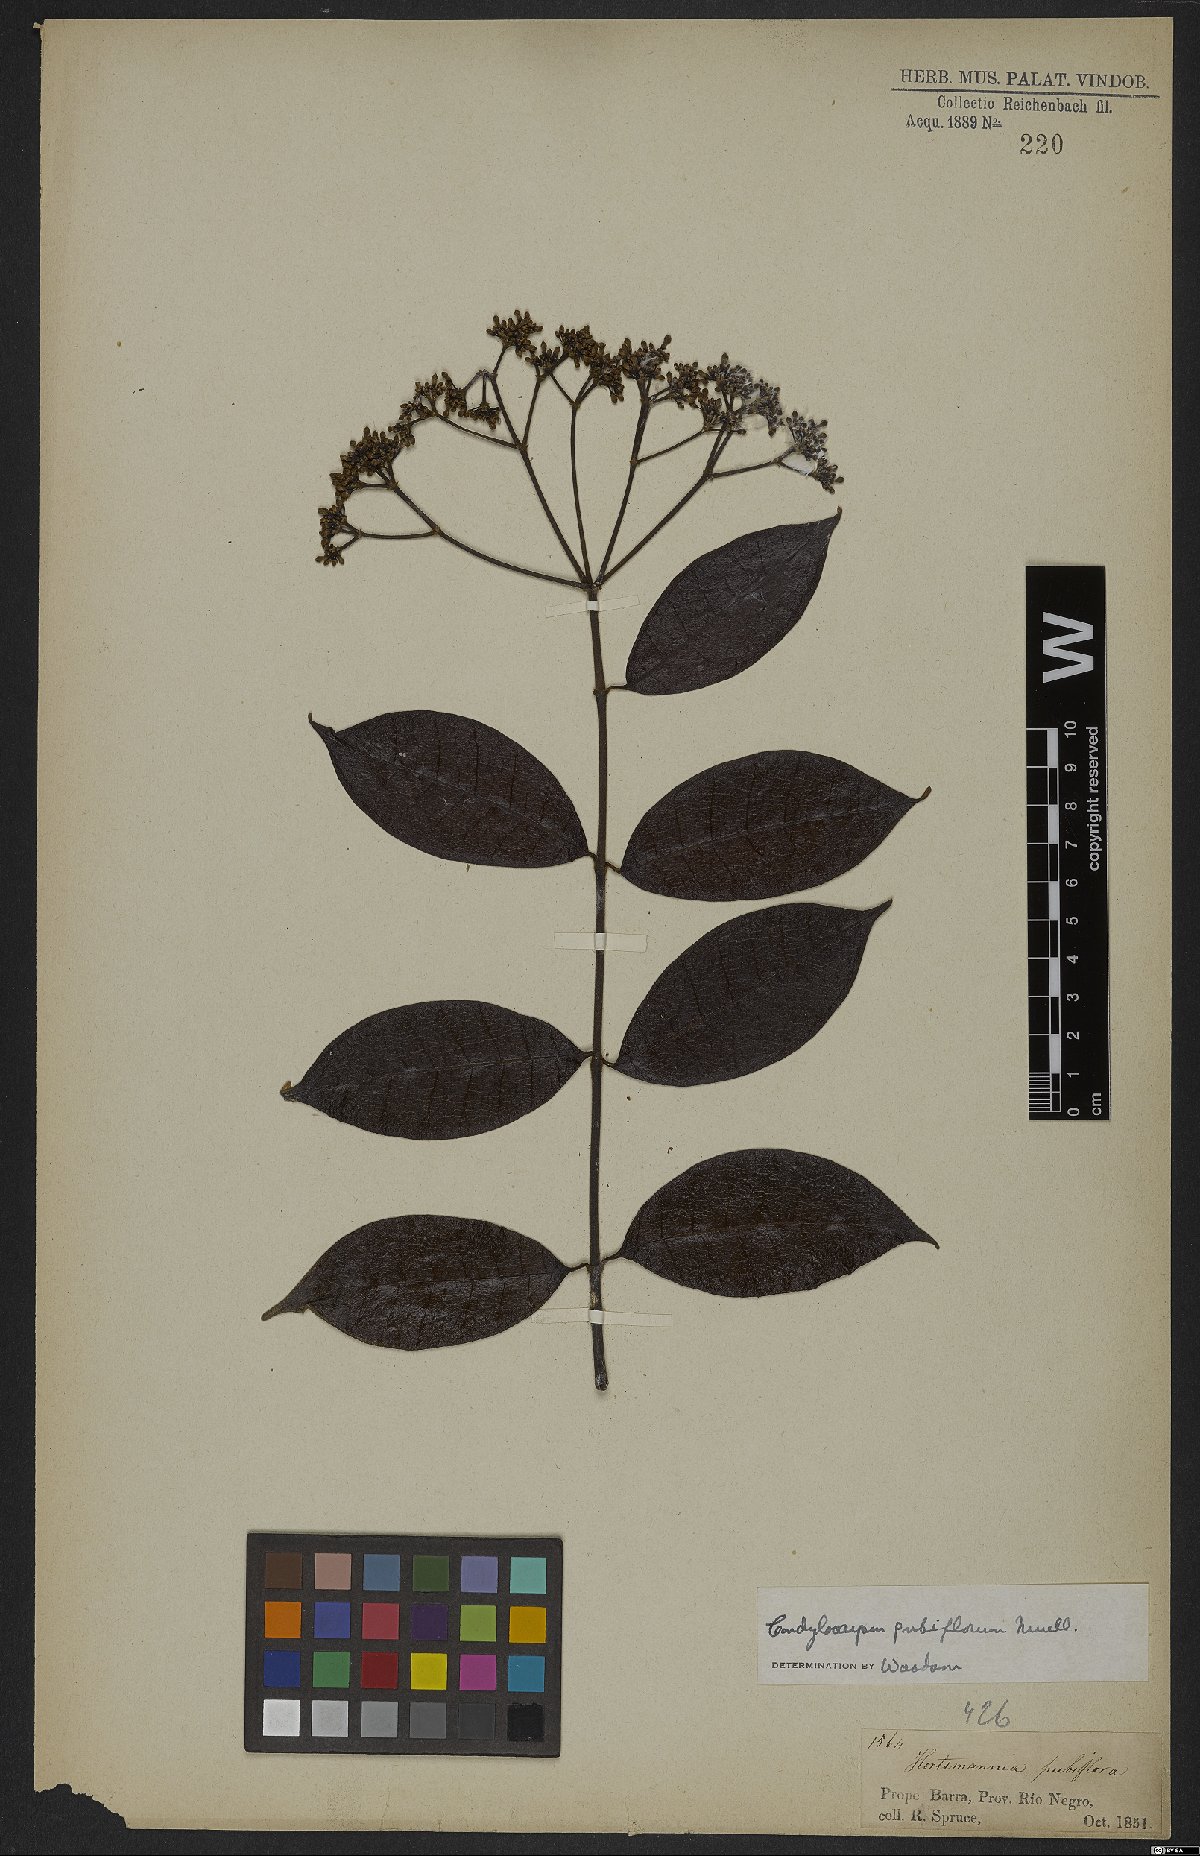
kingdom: Plantae
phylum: Tracheophyta
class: Magnoliopsida
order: Gentianales
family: Apocynaceae
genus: Condylocarpon
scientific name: Condylocarpon pubiflorum
